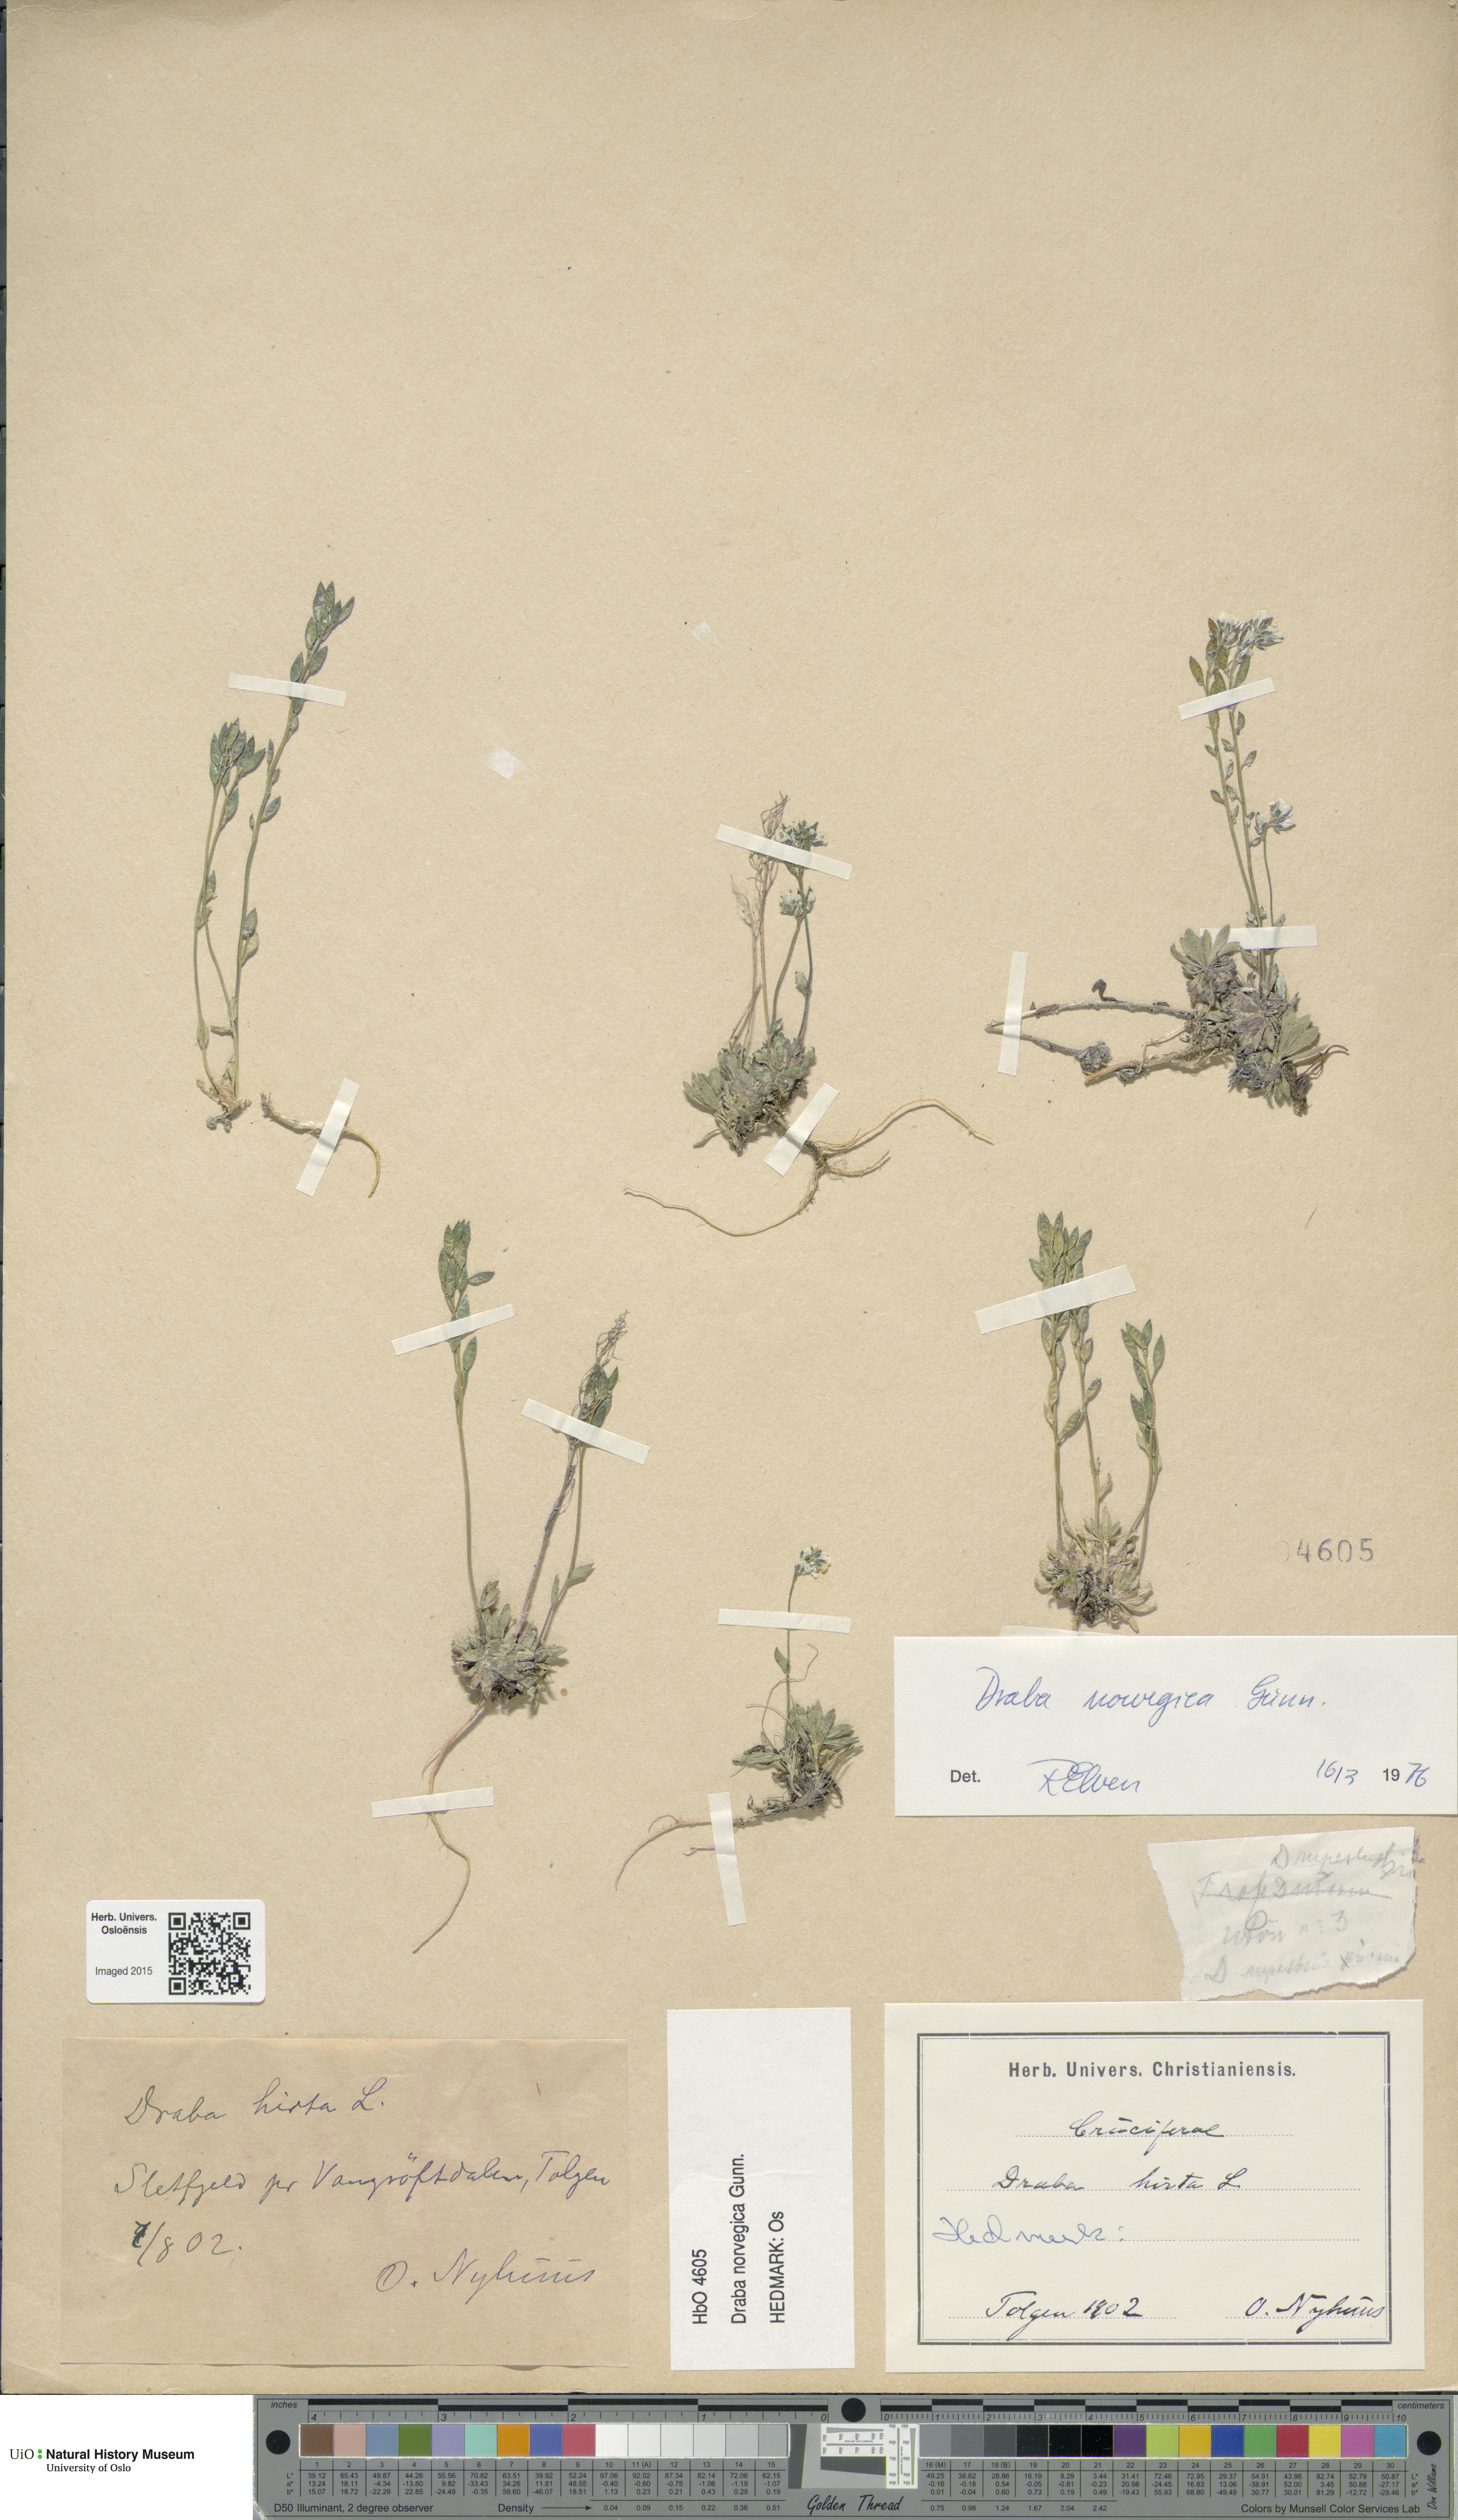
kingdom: Plantae
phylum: Tracheophyta
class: Magnoliopsida
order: Brassicales
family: Brassicaceae
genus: Draba
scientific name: Draba norvegica
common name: Rock whitlowgrass
